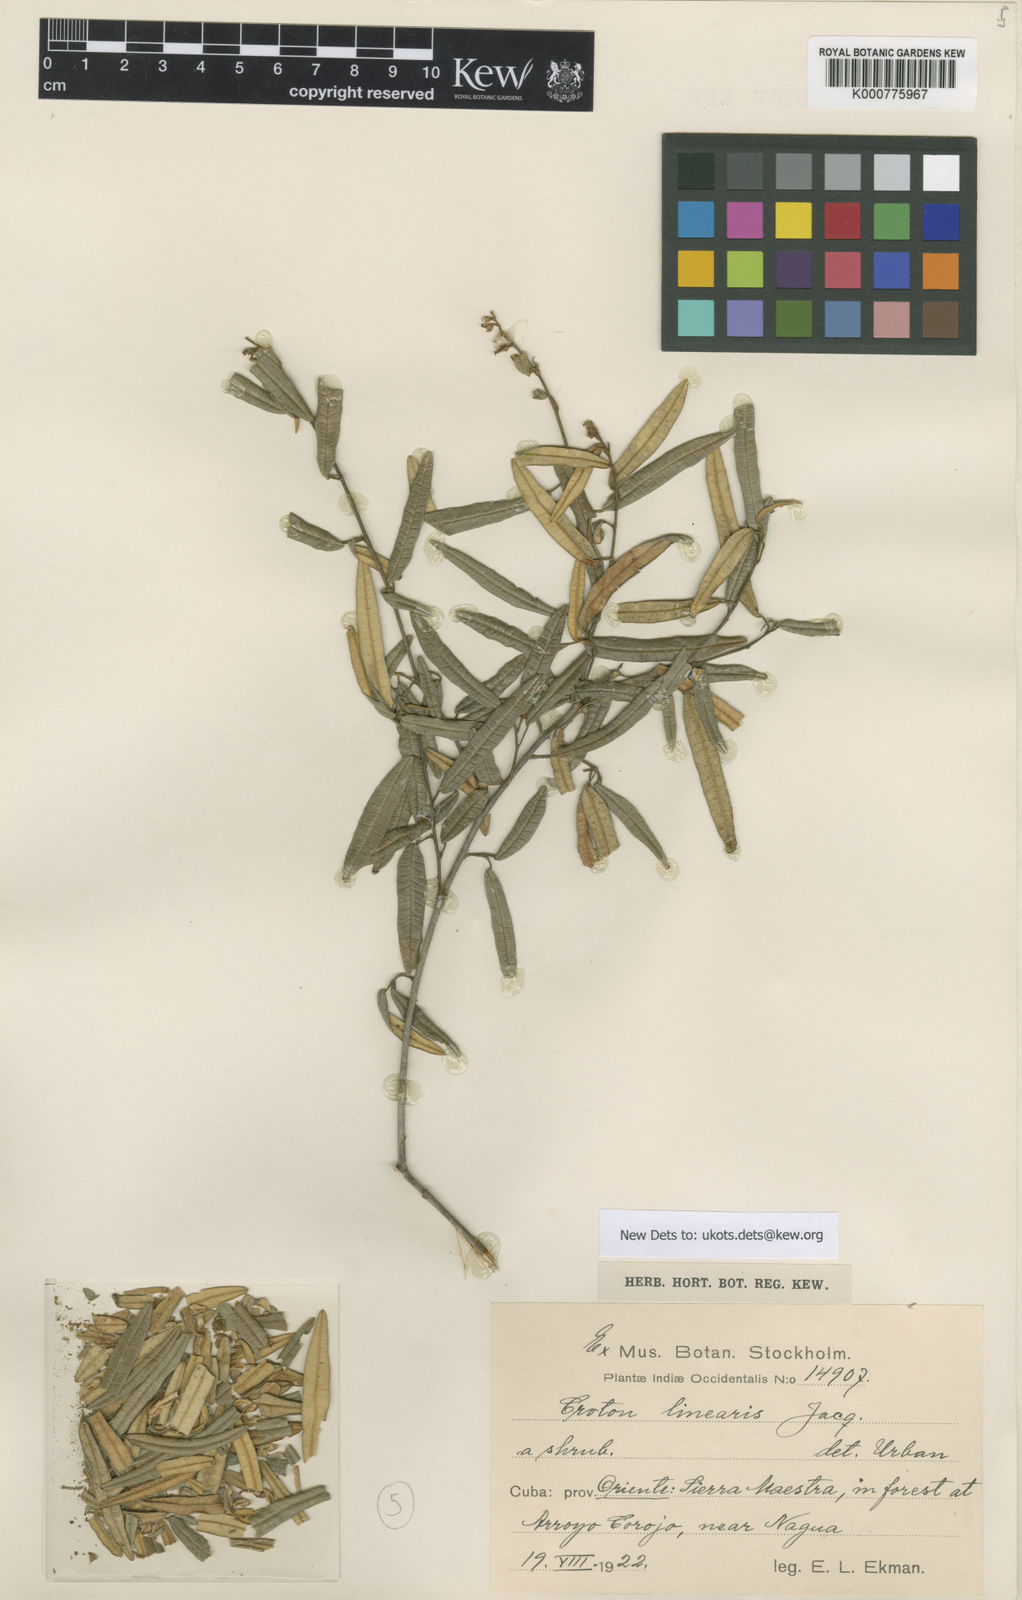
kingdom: Plantae
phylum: Tracheophyta
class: Magnoliopsida
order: Malpighiales
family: Euphorbiaceae
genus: Croton
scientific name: Croton linearis
